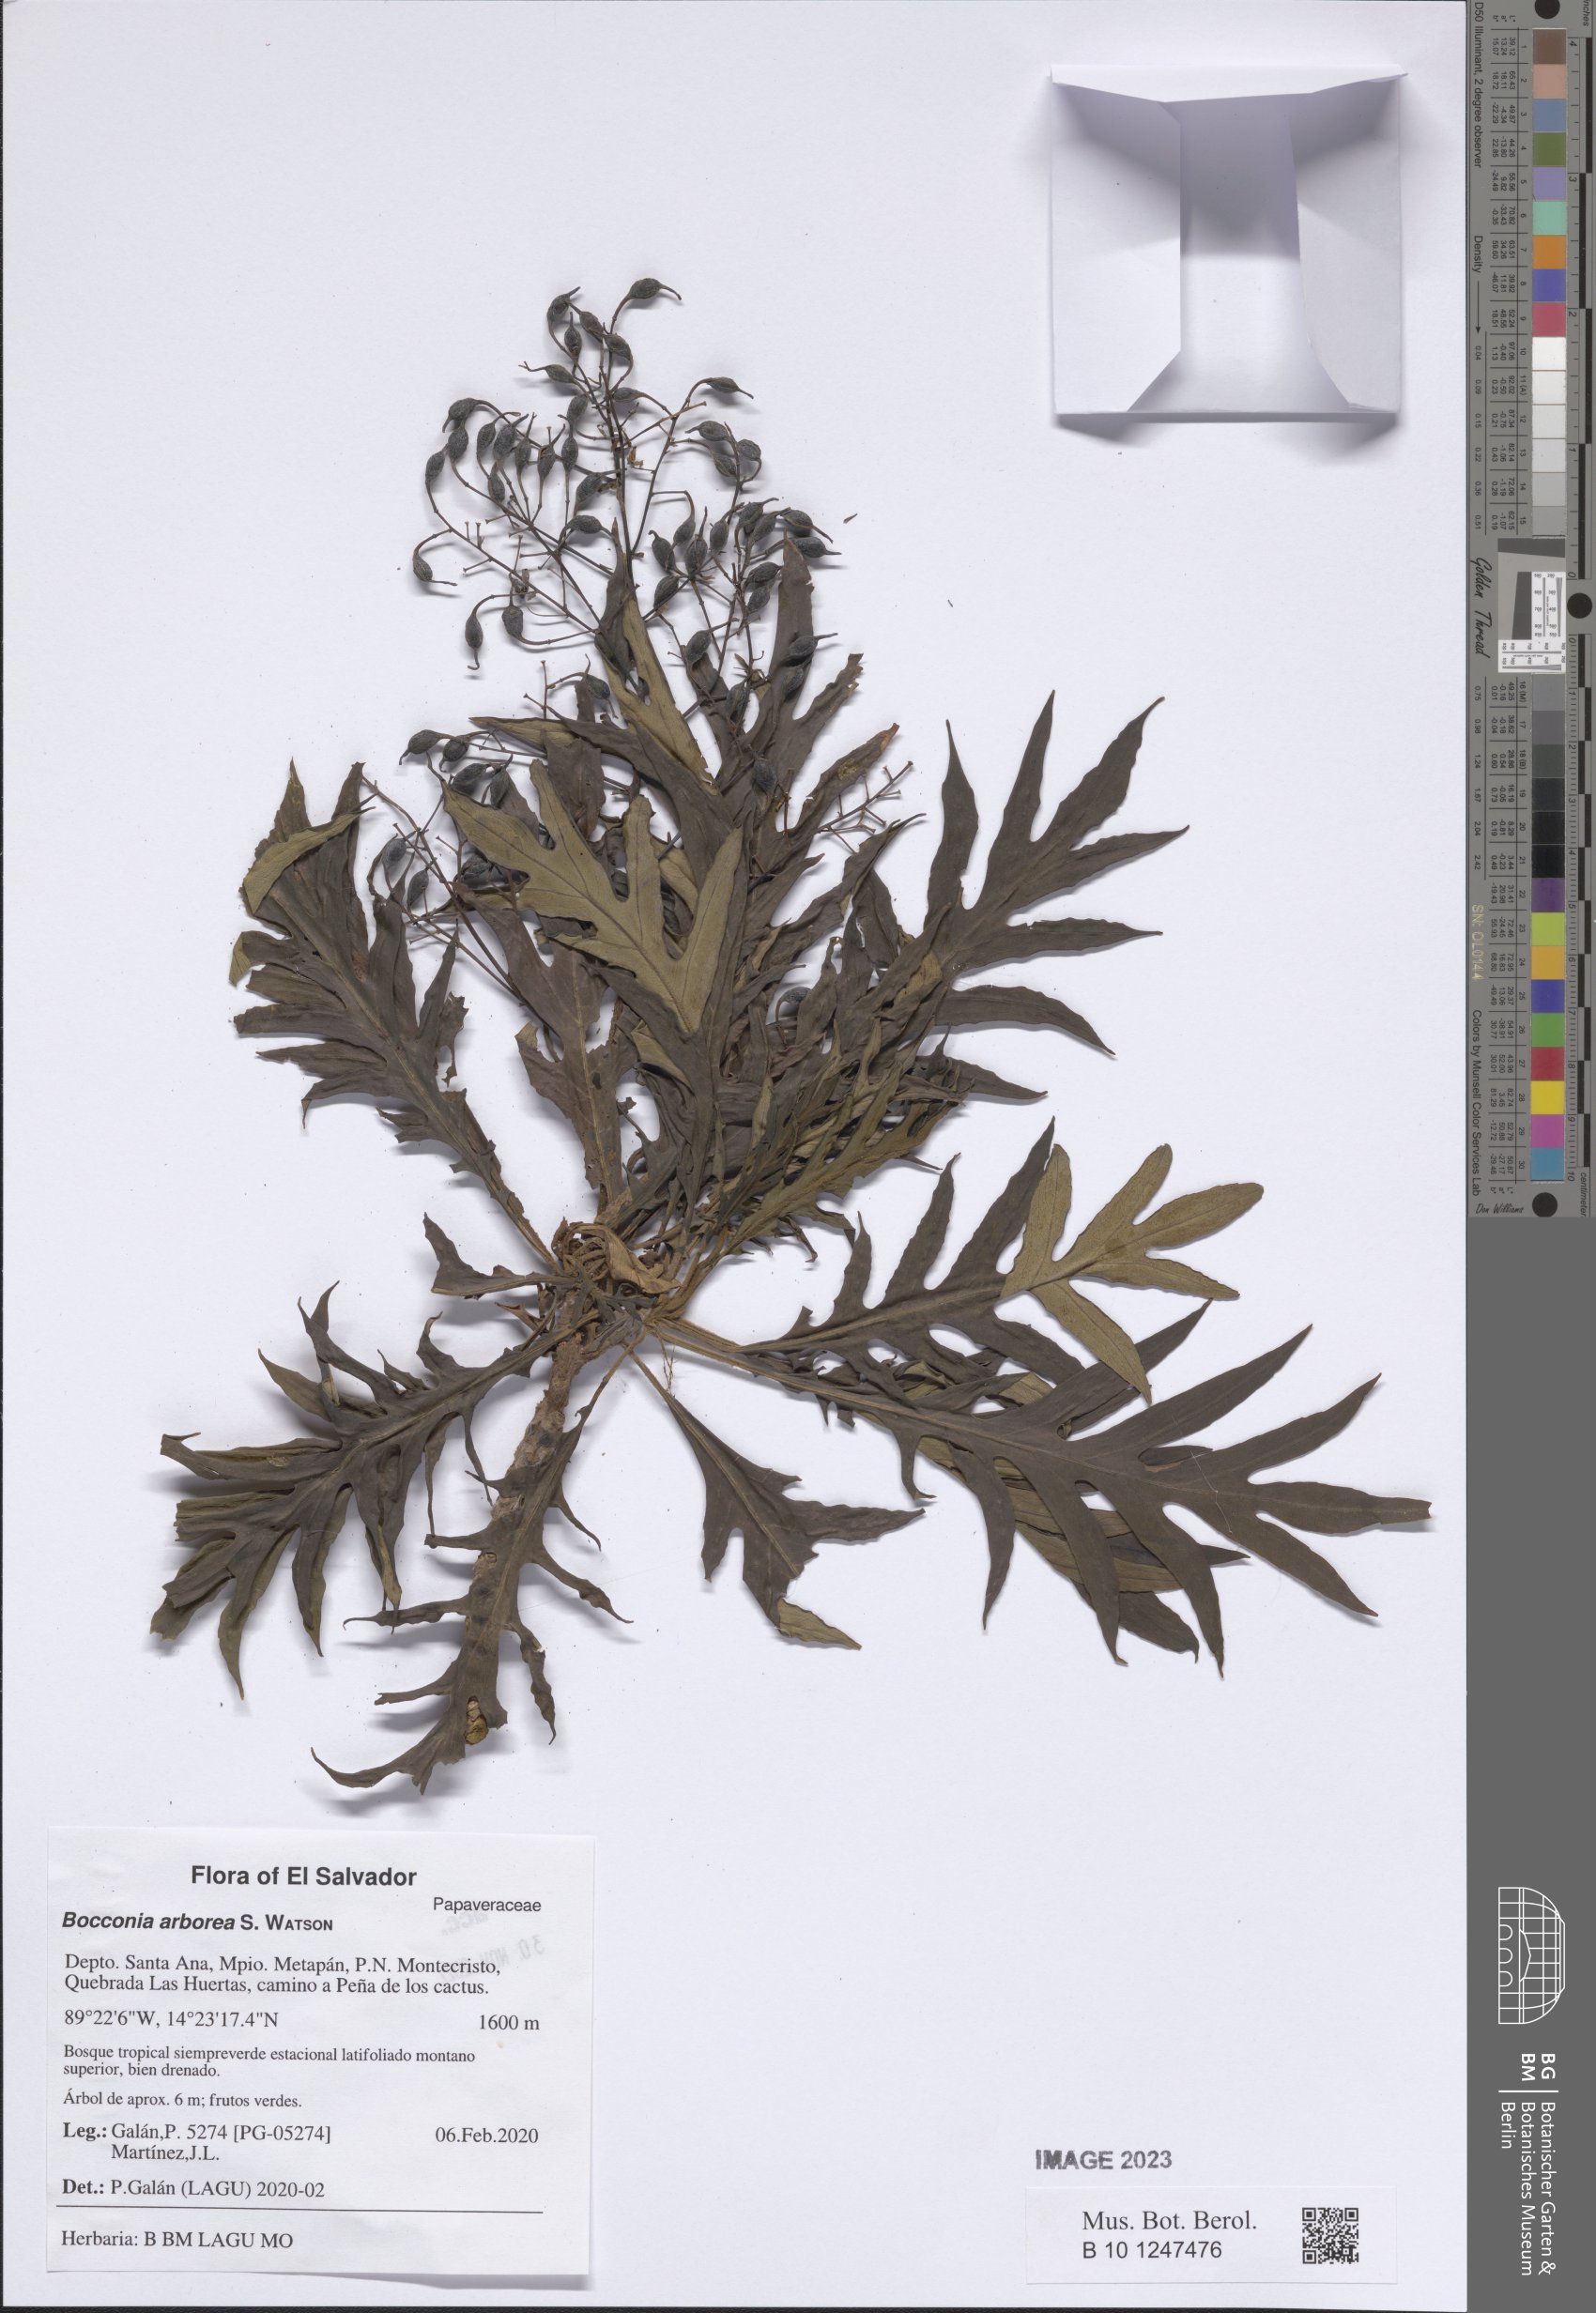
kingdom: Plantae
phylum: Tracheophyta
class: Magnoliopsida
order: Ranunculales
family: Papaveraceae
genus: Bocconia
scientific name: Bocconia arborea
